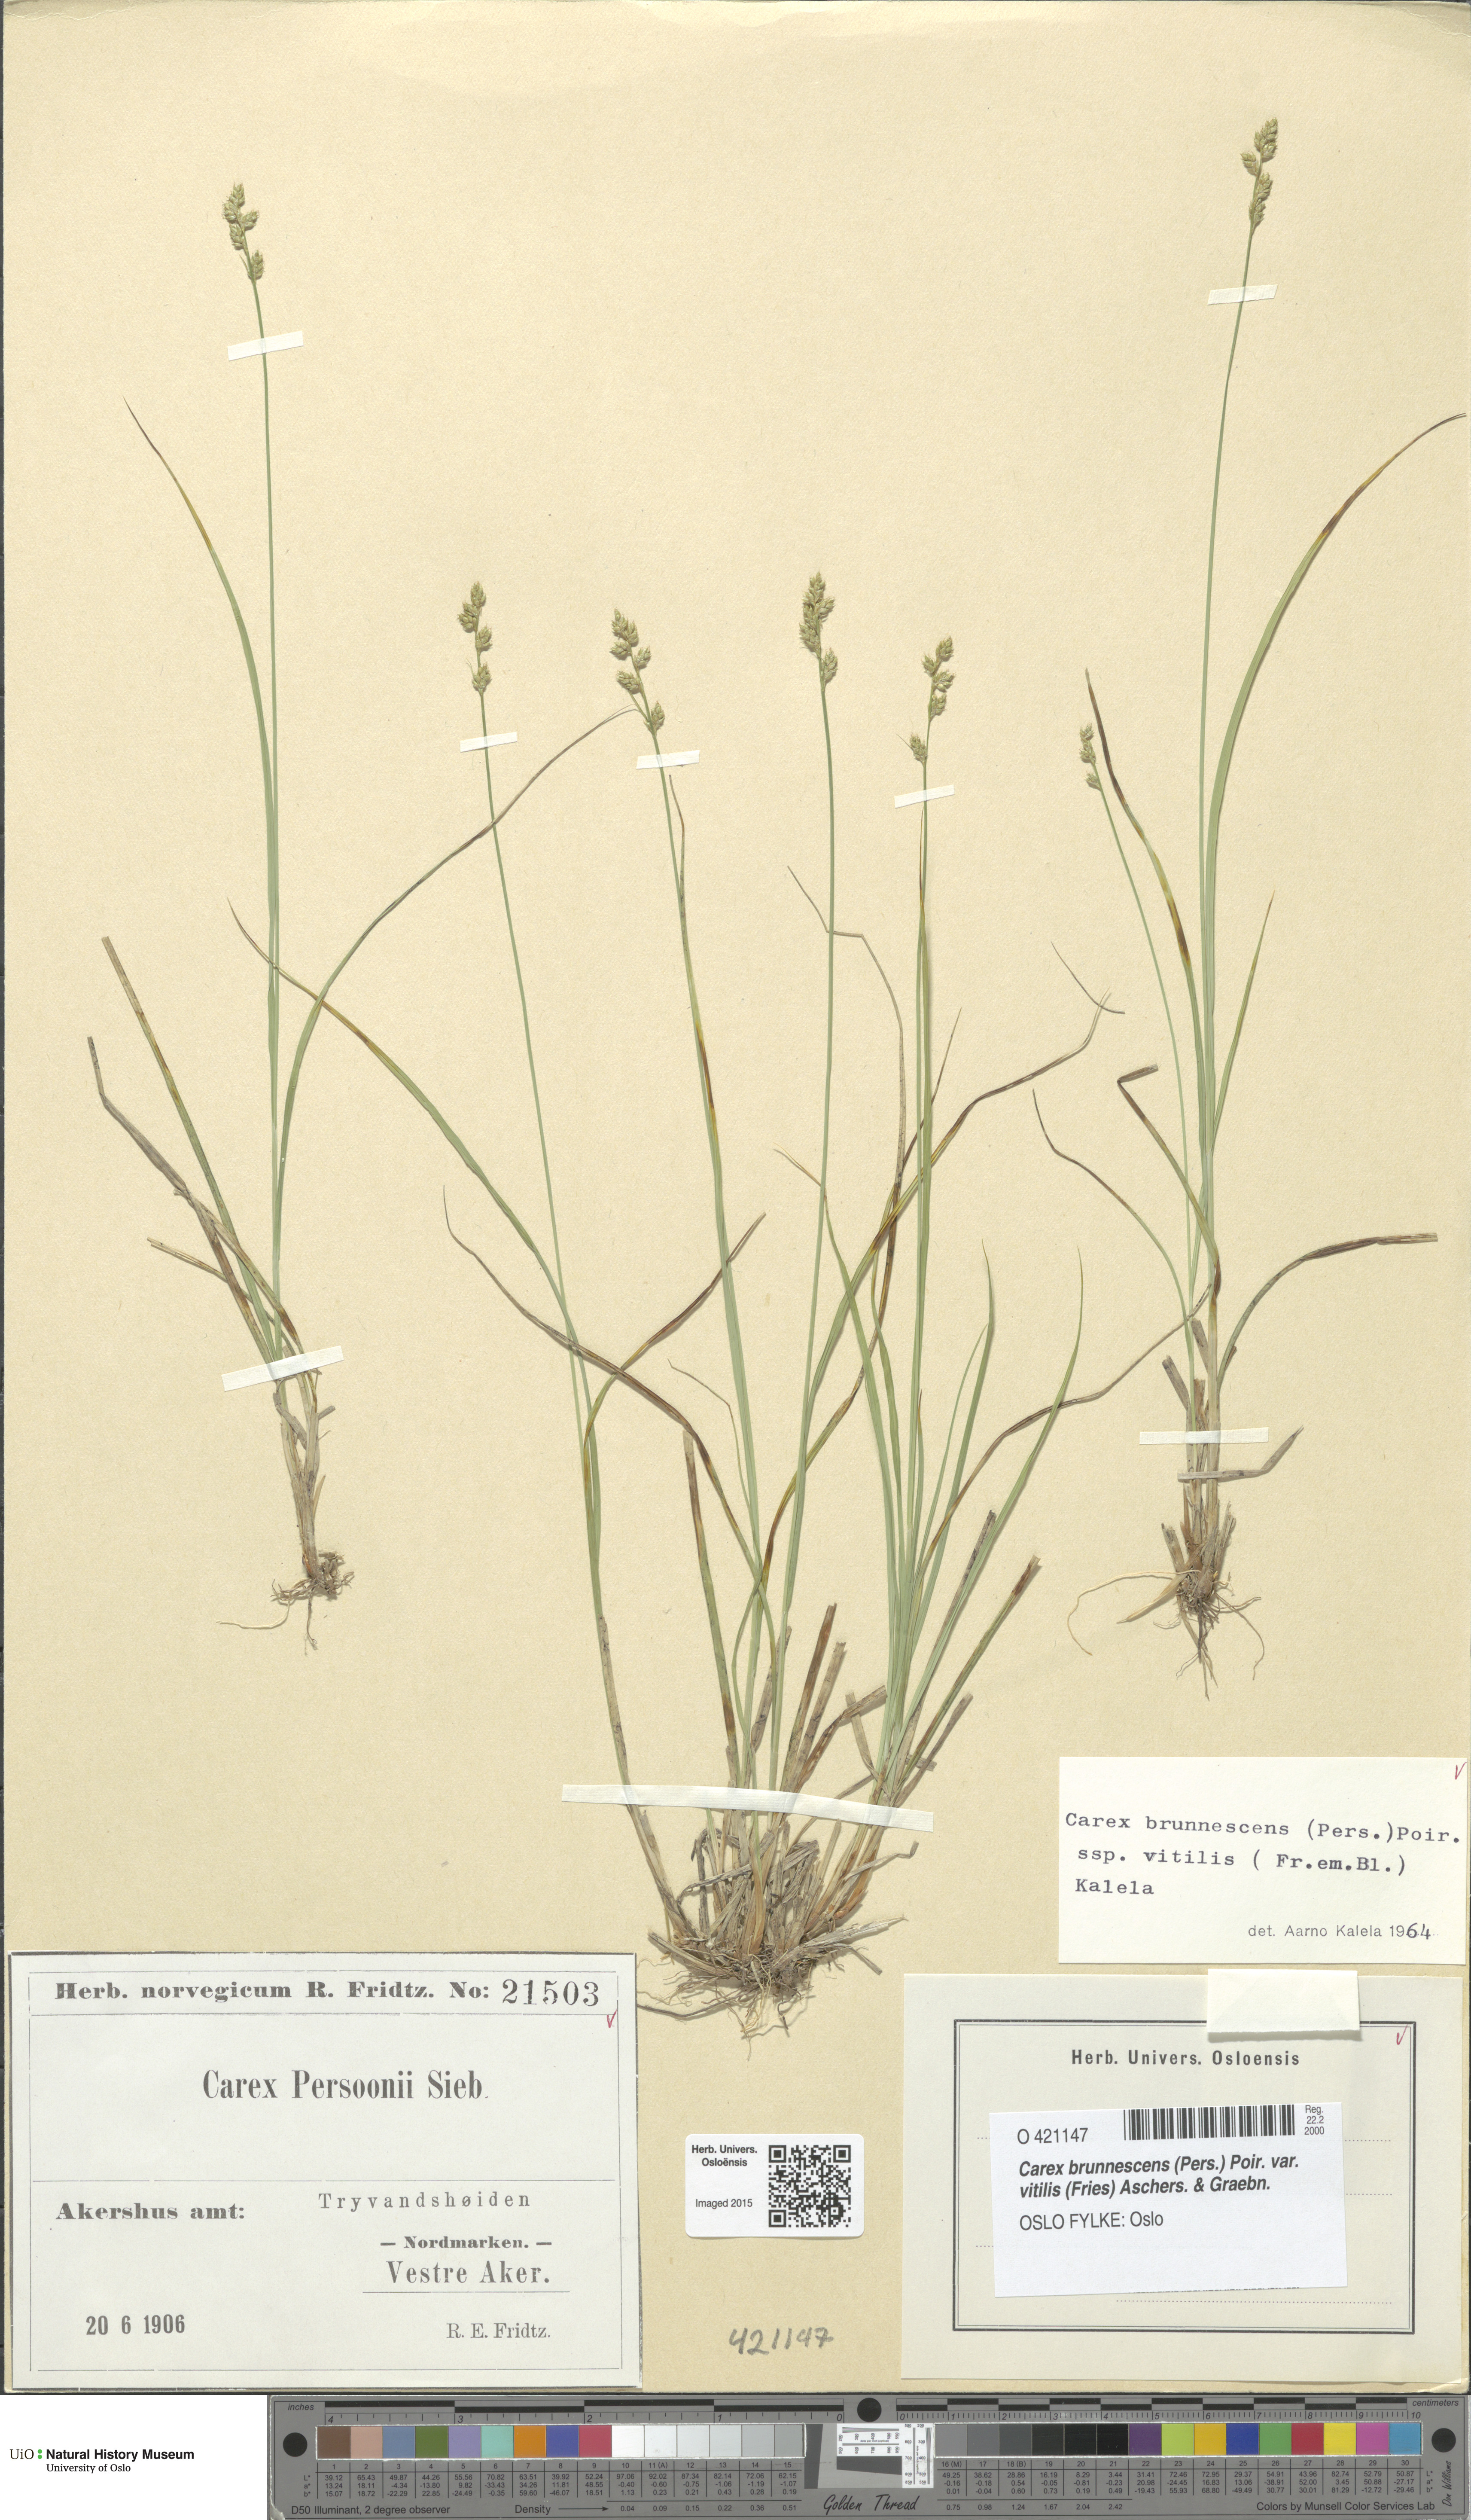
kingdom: Plantae
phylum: Tracheophyta
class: Liliopsida
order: Poales
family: Cyperaceae
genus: Carex
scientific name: Carex brunnescens
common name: Brown sedge
